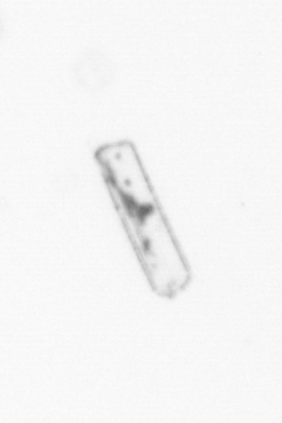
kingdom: Chromista
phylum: Ochrophyta
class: Bacillariophyceae
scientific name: Bacillariophyceae
